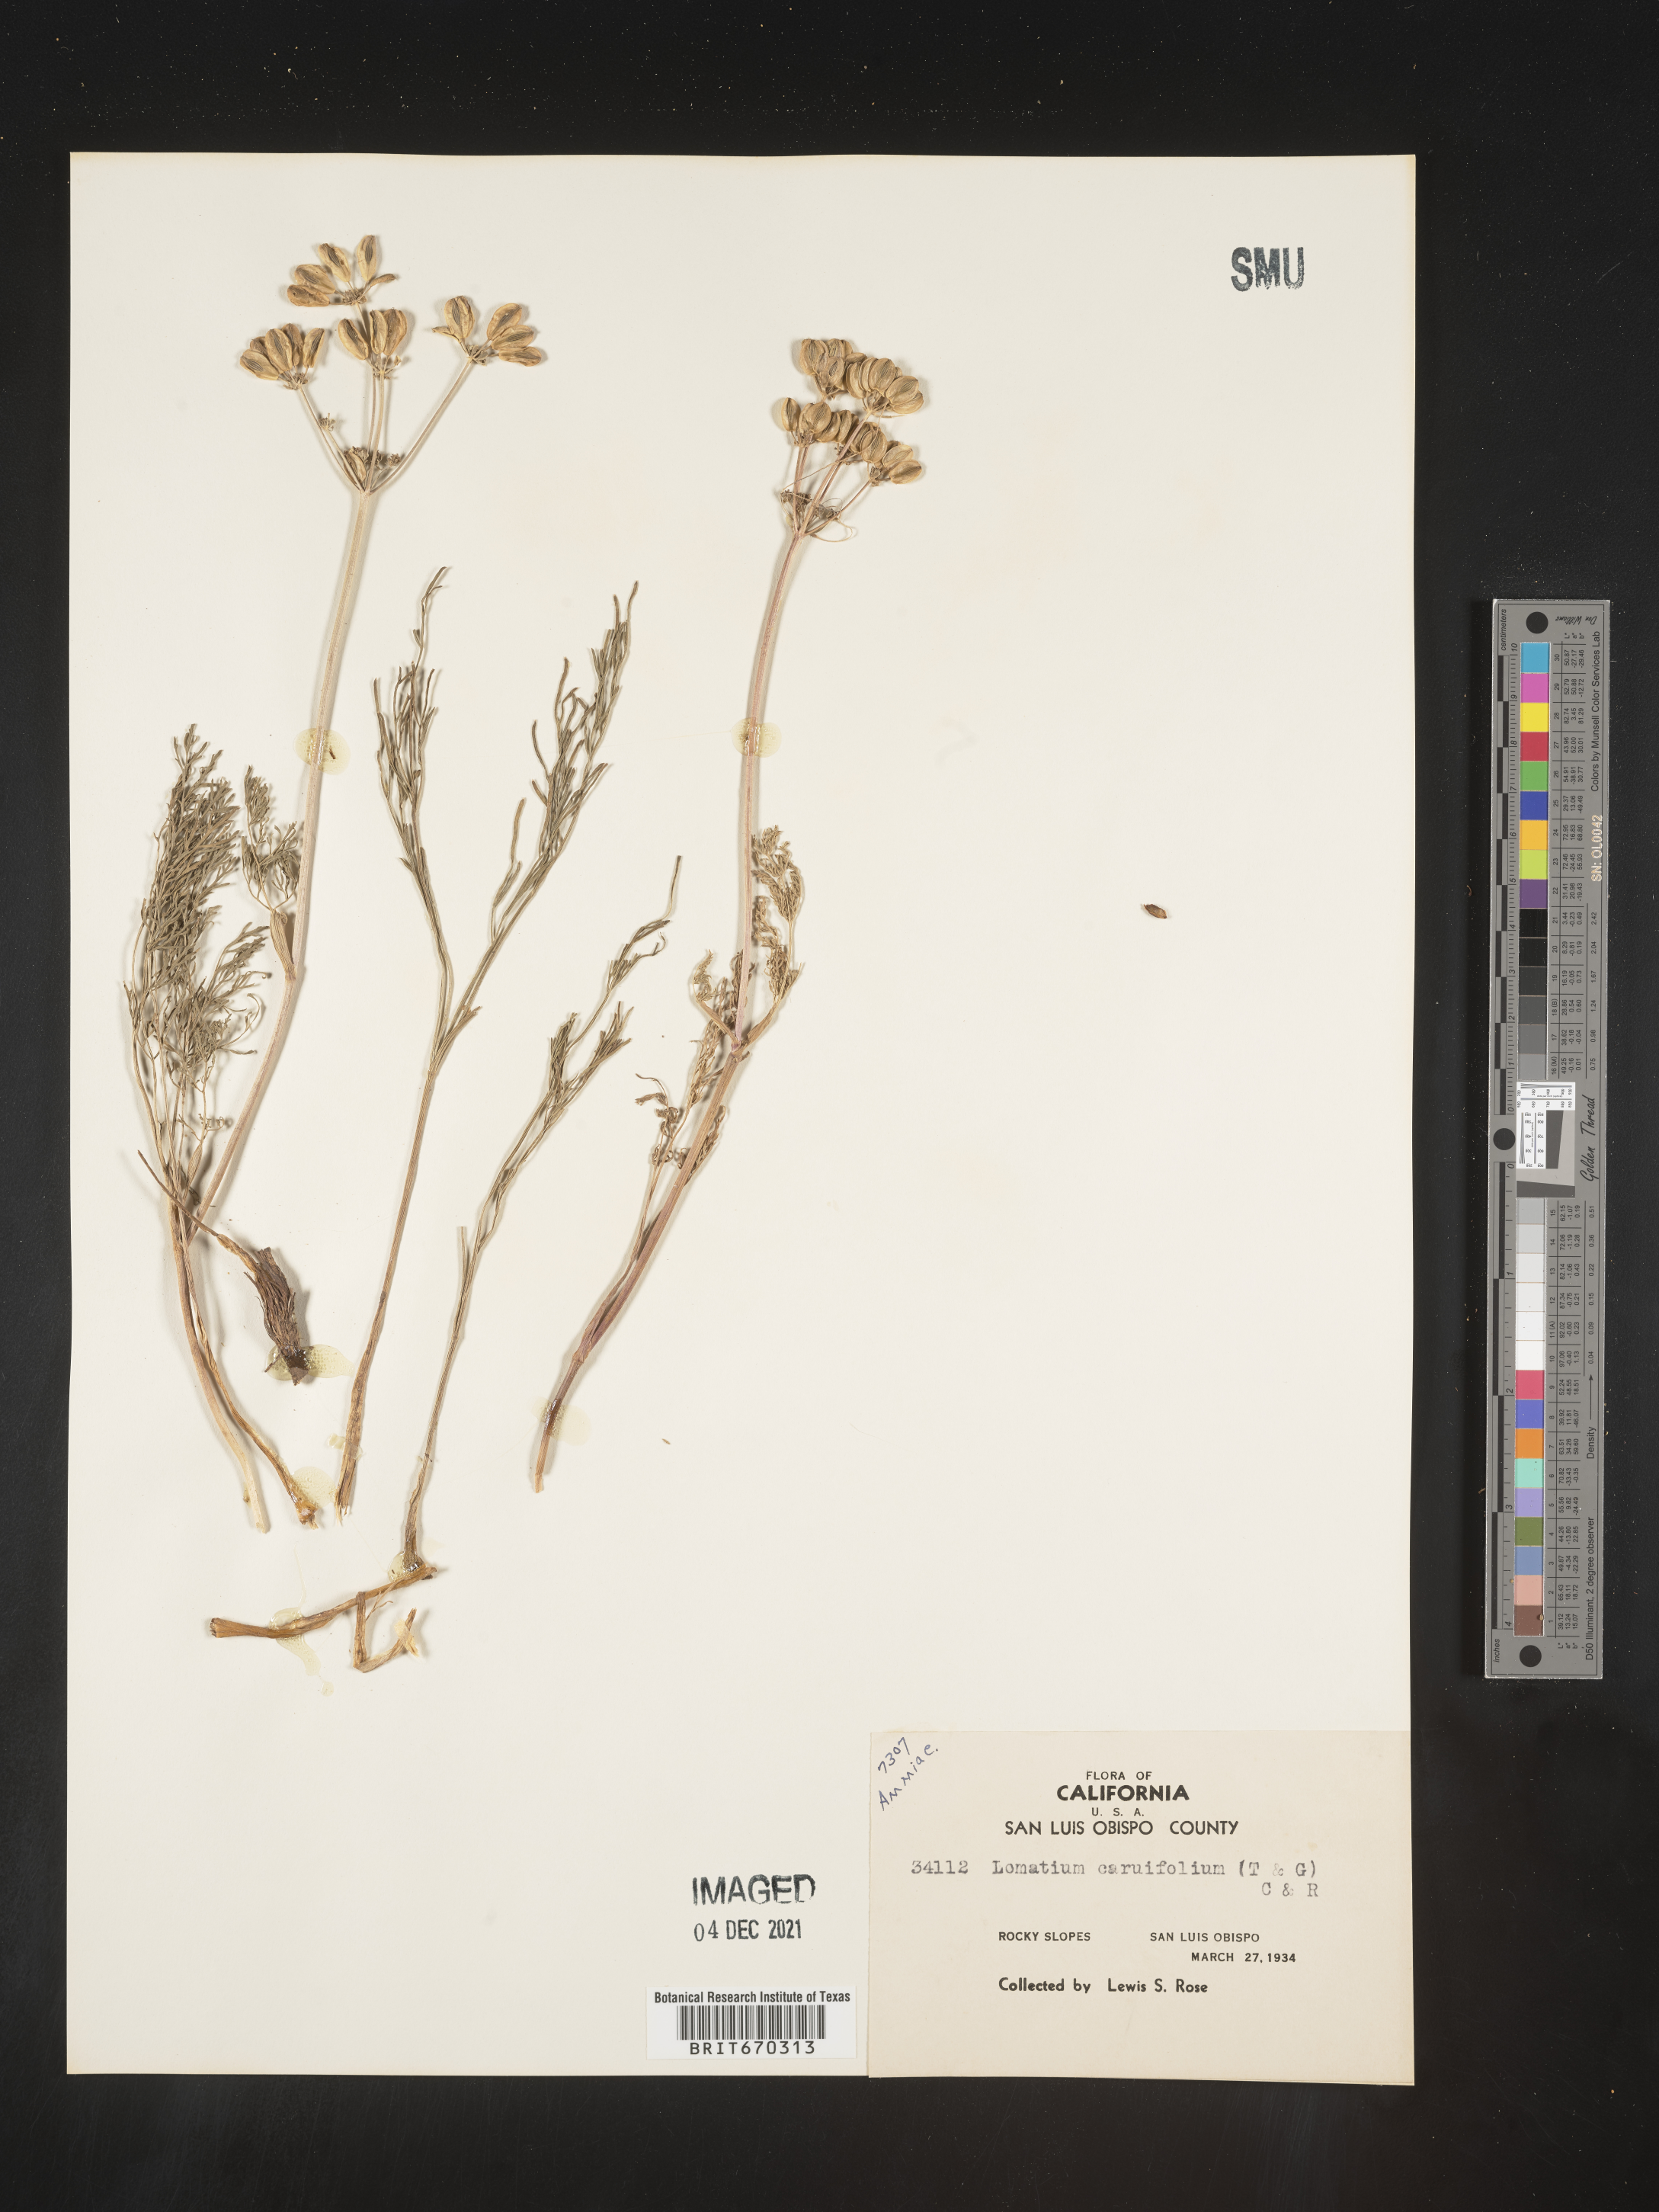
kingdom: Plantae
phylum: Tracheophyta
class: Magnoliopsida
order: Apiales
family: Apiaceae
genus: Lomatium
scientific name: Lomatium caruifolium
